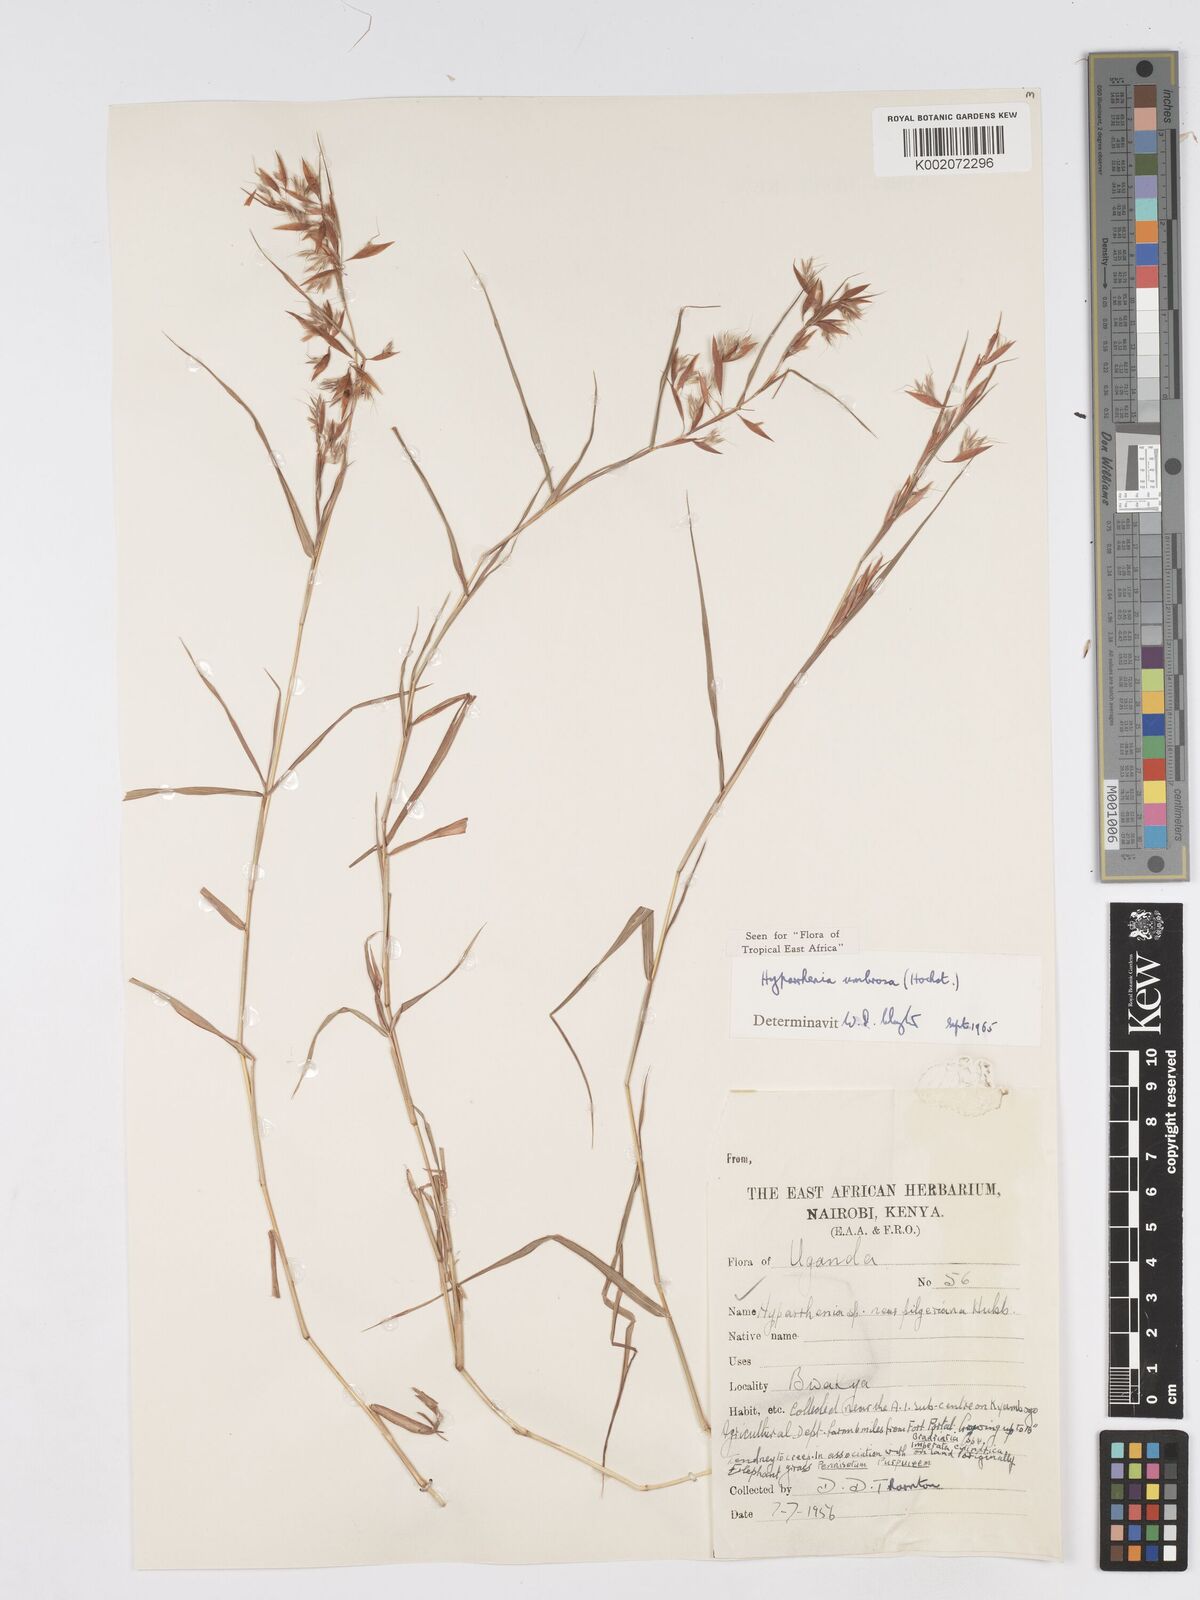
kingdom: Plantae
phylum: Tracheophyta
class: Liliopsida
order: Poales
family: Poaceae
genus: Hyparrhenia
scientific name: Hyparrhenia umbrosa
